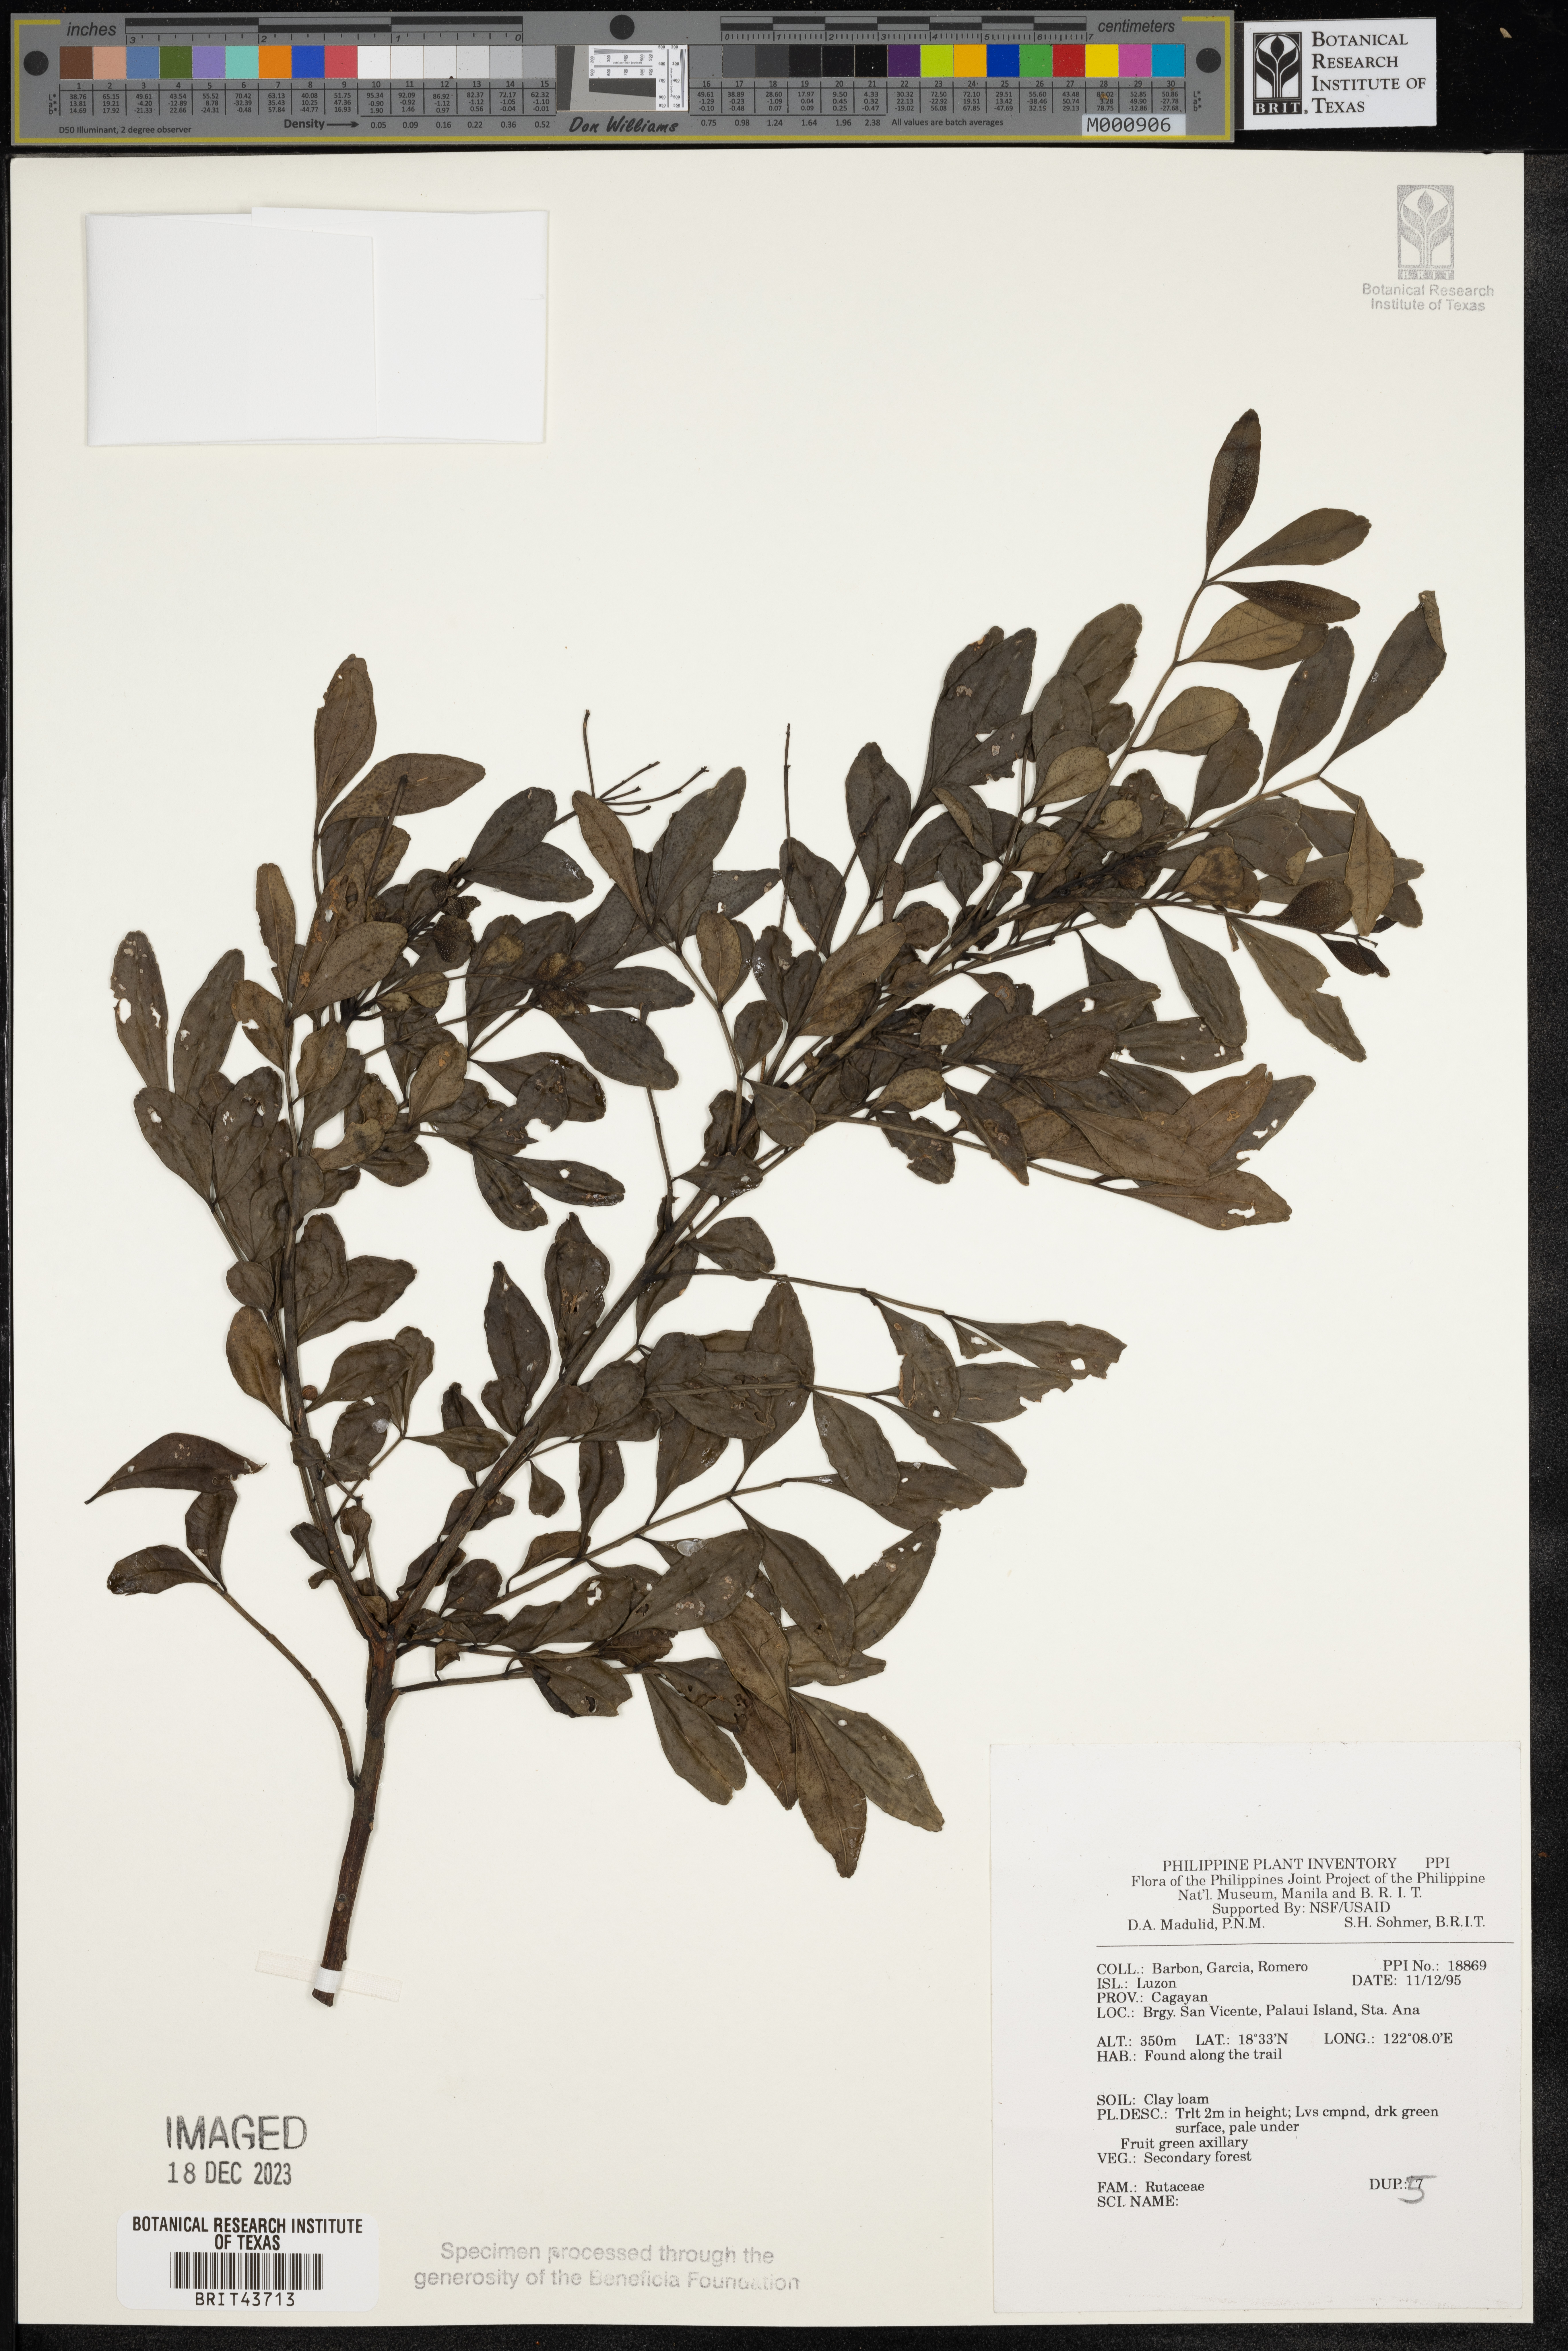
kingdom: Plantae
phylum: Tracheophyta
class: Magnoliopsida
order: Sapindales
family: Rutaceae
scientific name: Rutaceae
